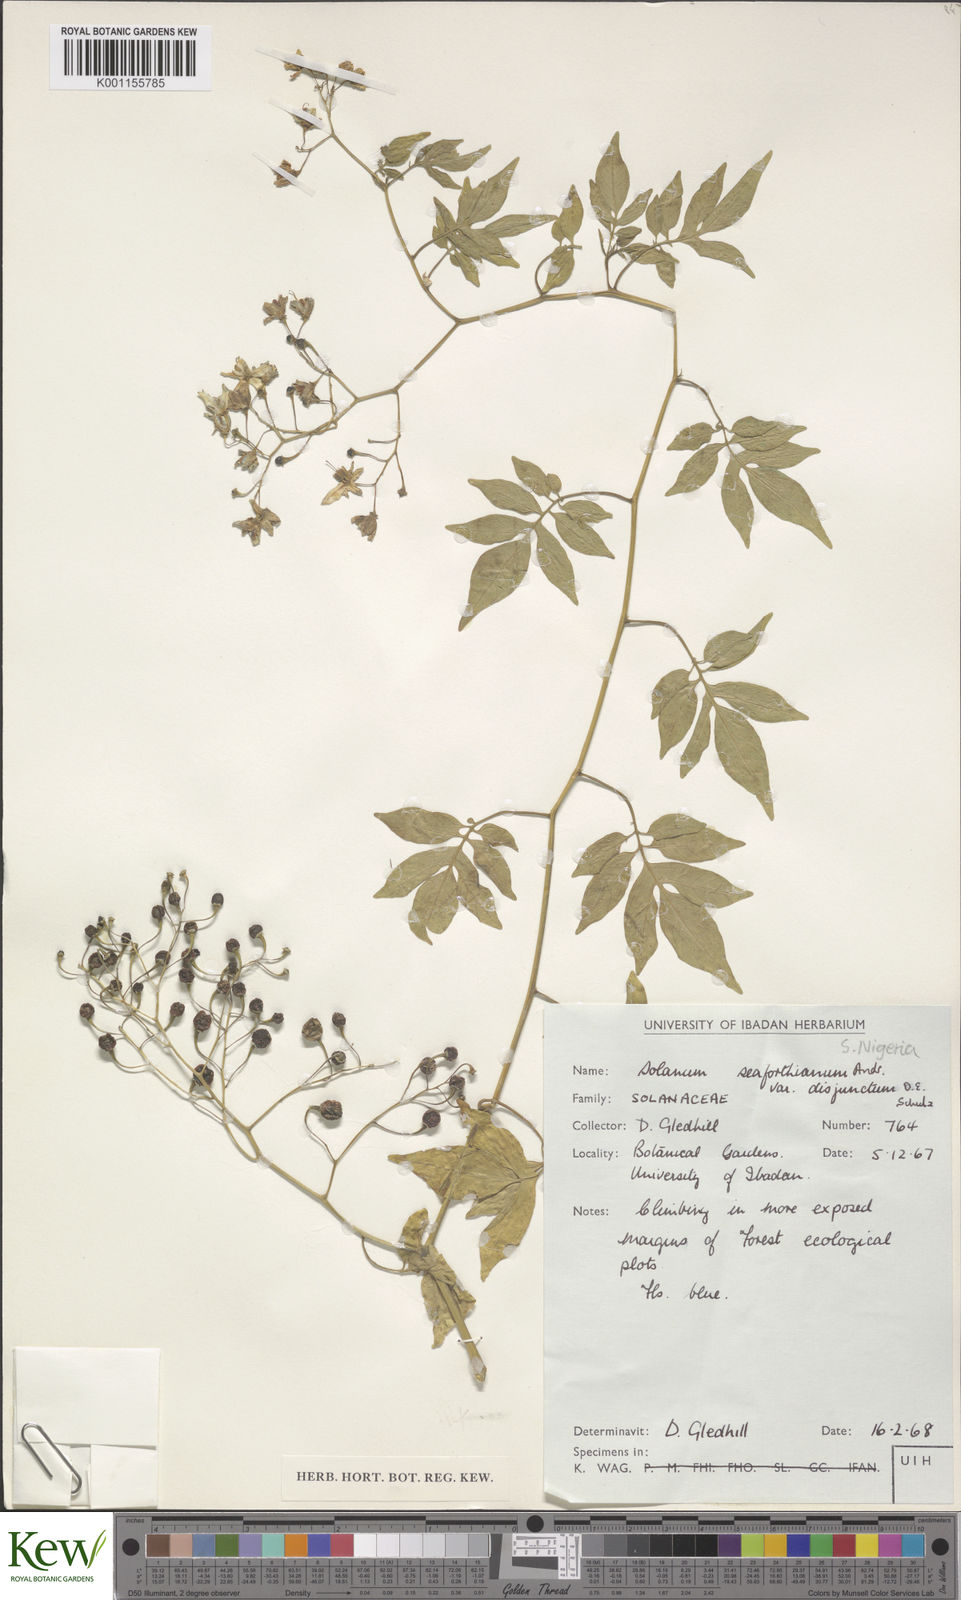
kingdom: Plantae
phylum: Tracheophyta
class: Magnoliopsida
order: Solanales
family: Solanaceae
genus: Solanum
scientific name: Solanum seaforthianum
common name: Brazilian nightshade
